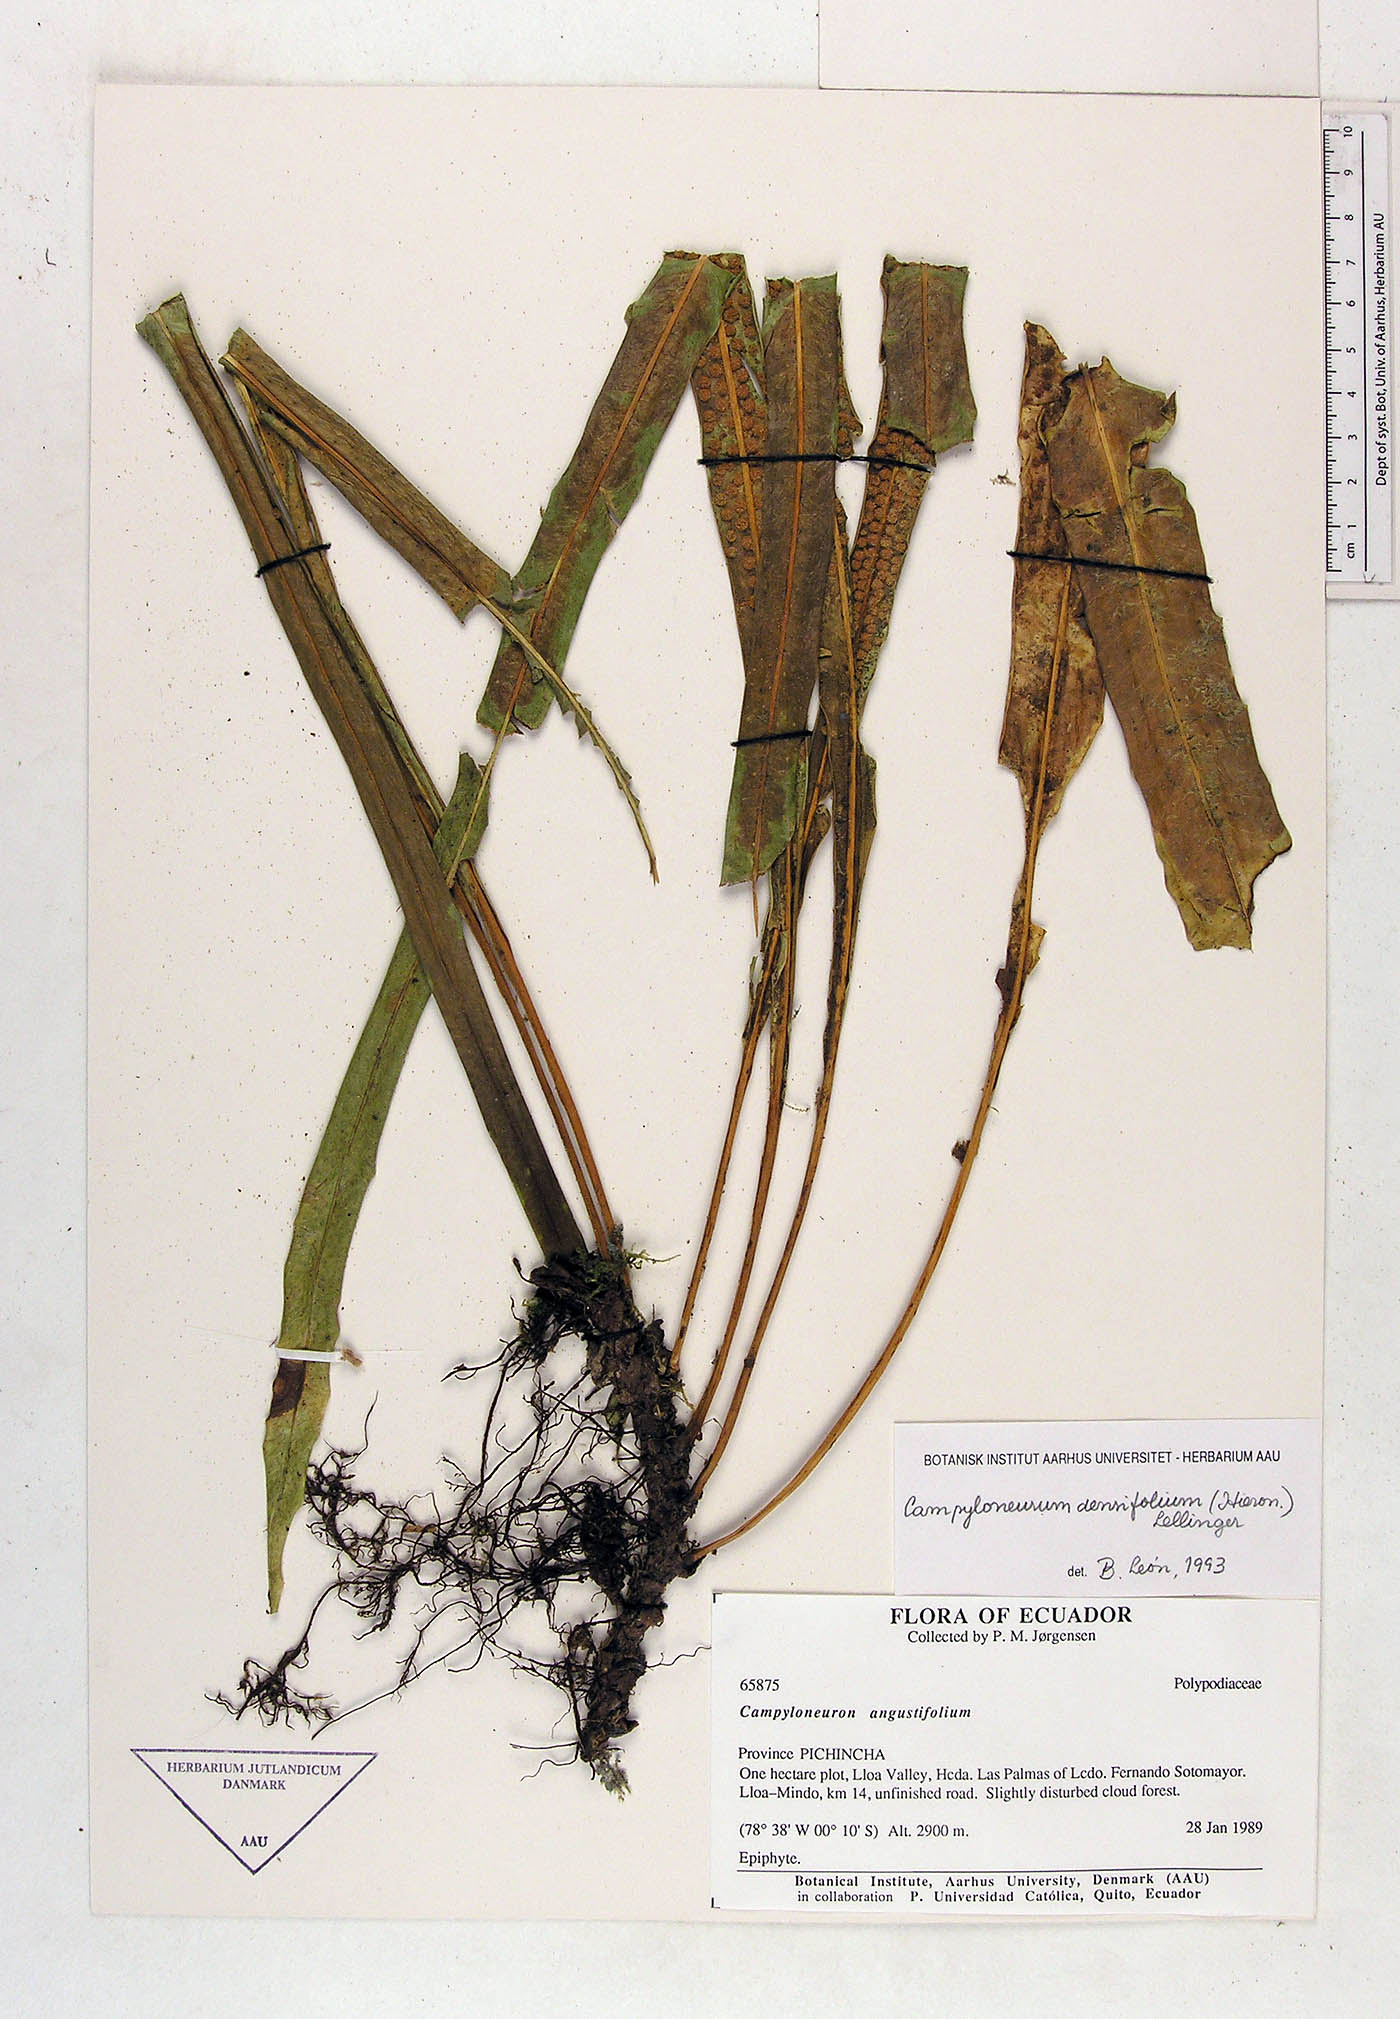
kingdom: Plantae
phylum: Tracheophyta
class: Polypodiopsida
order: Polypodiales
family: Polypodiaceae
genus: Campyloneurum
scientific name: Campyloneurum densifolium
